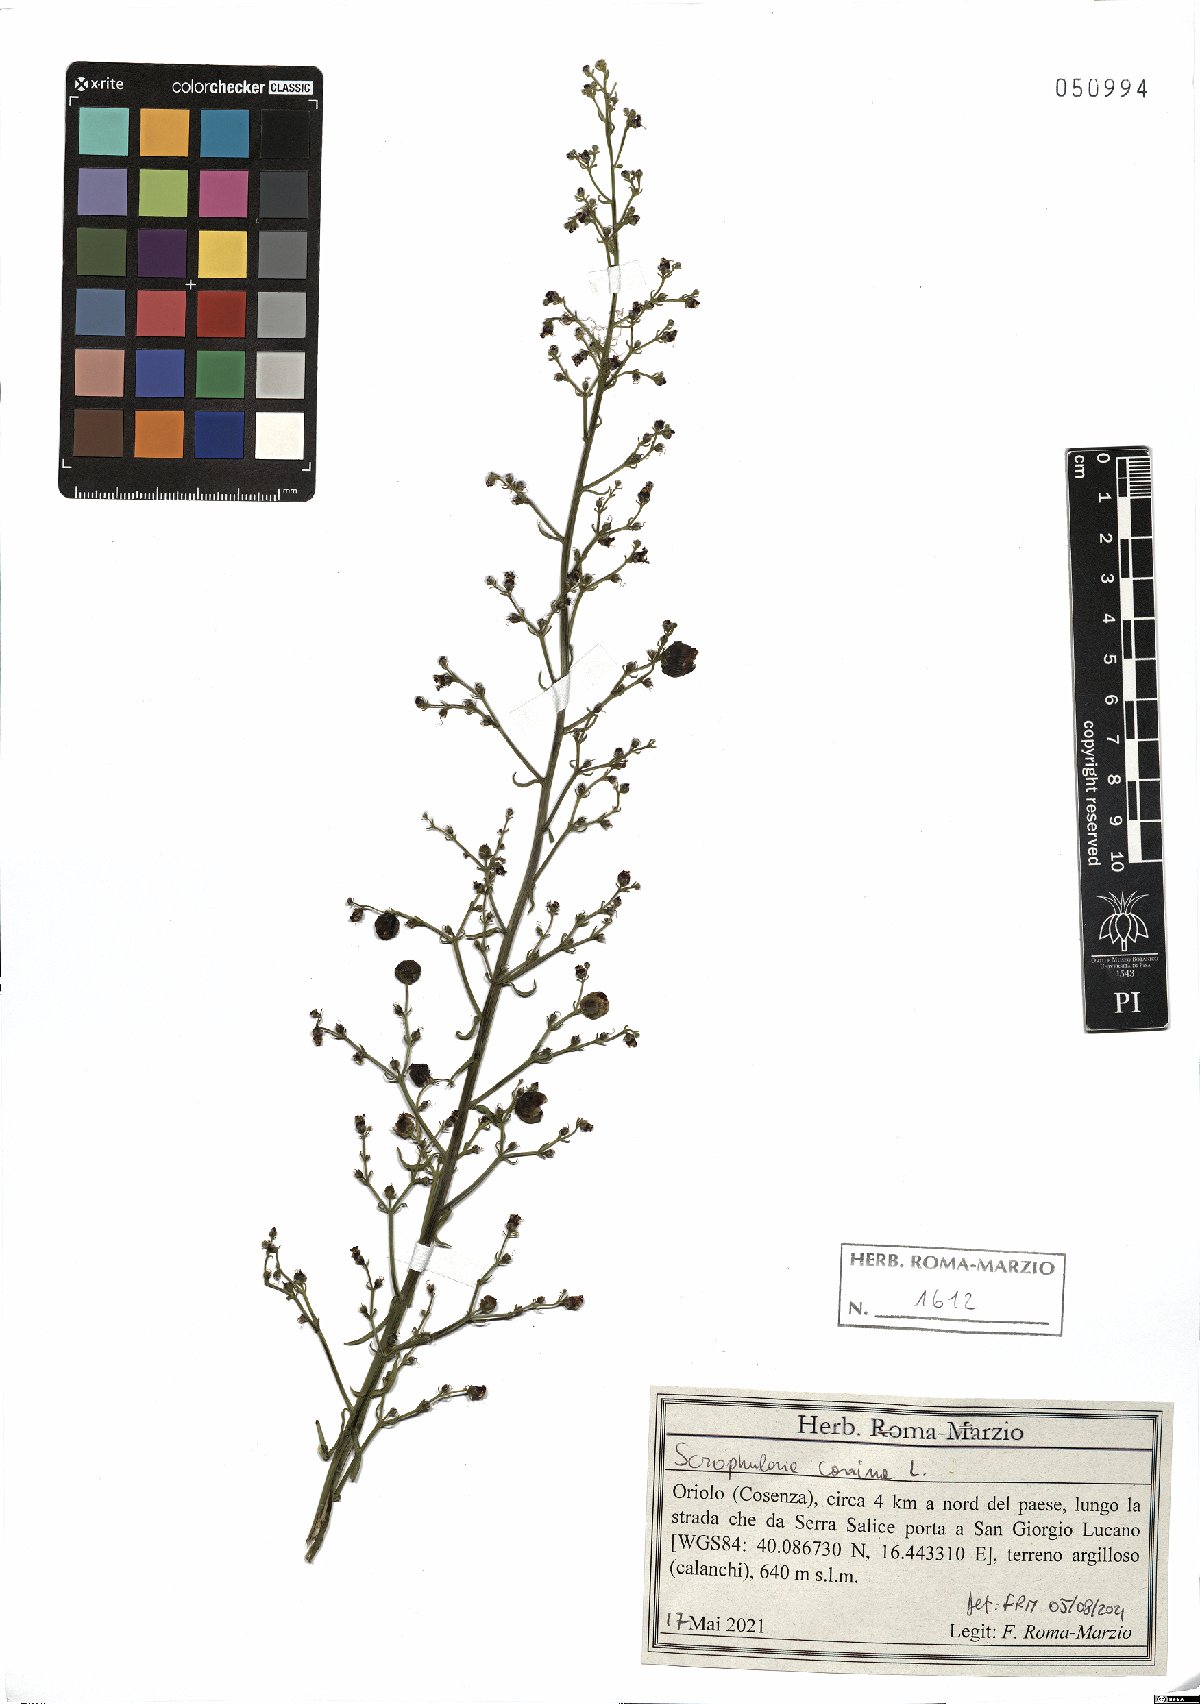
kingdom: Plantae
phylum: Tracheophyta
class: Magnoliopsida
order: Lamiales
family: Scrophulariaceae
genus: Scrophularia
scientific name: Scrophularia canina
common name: French figwort
